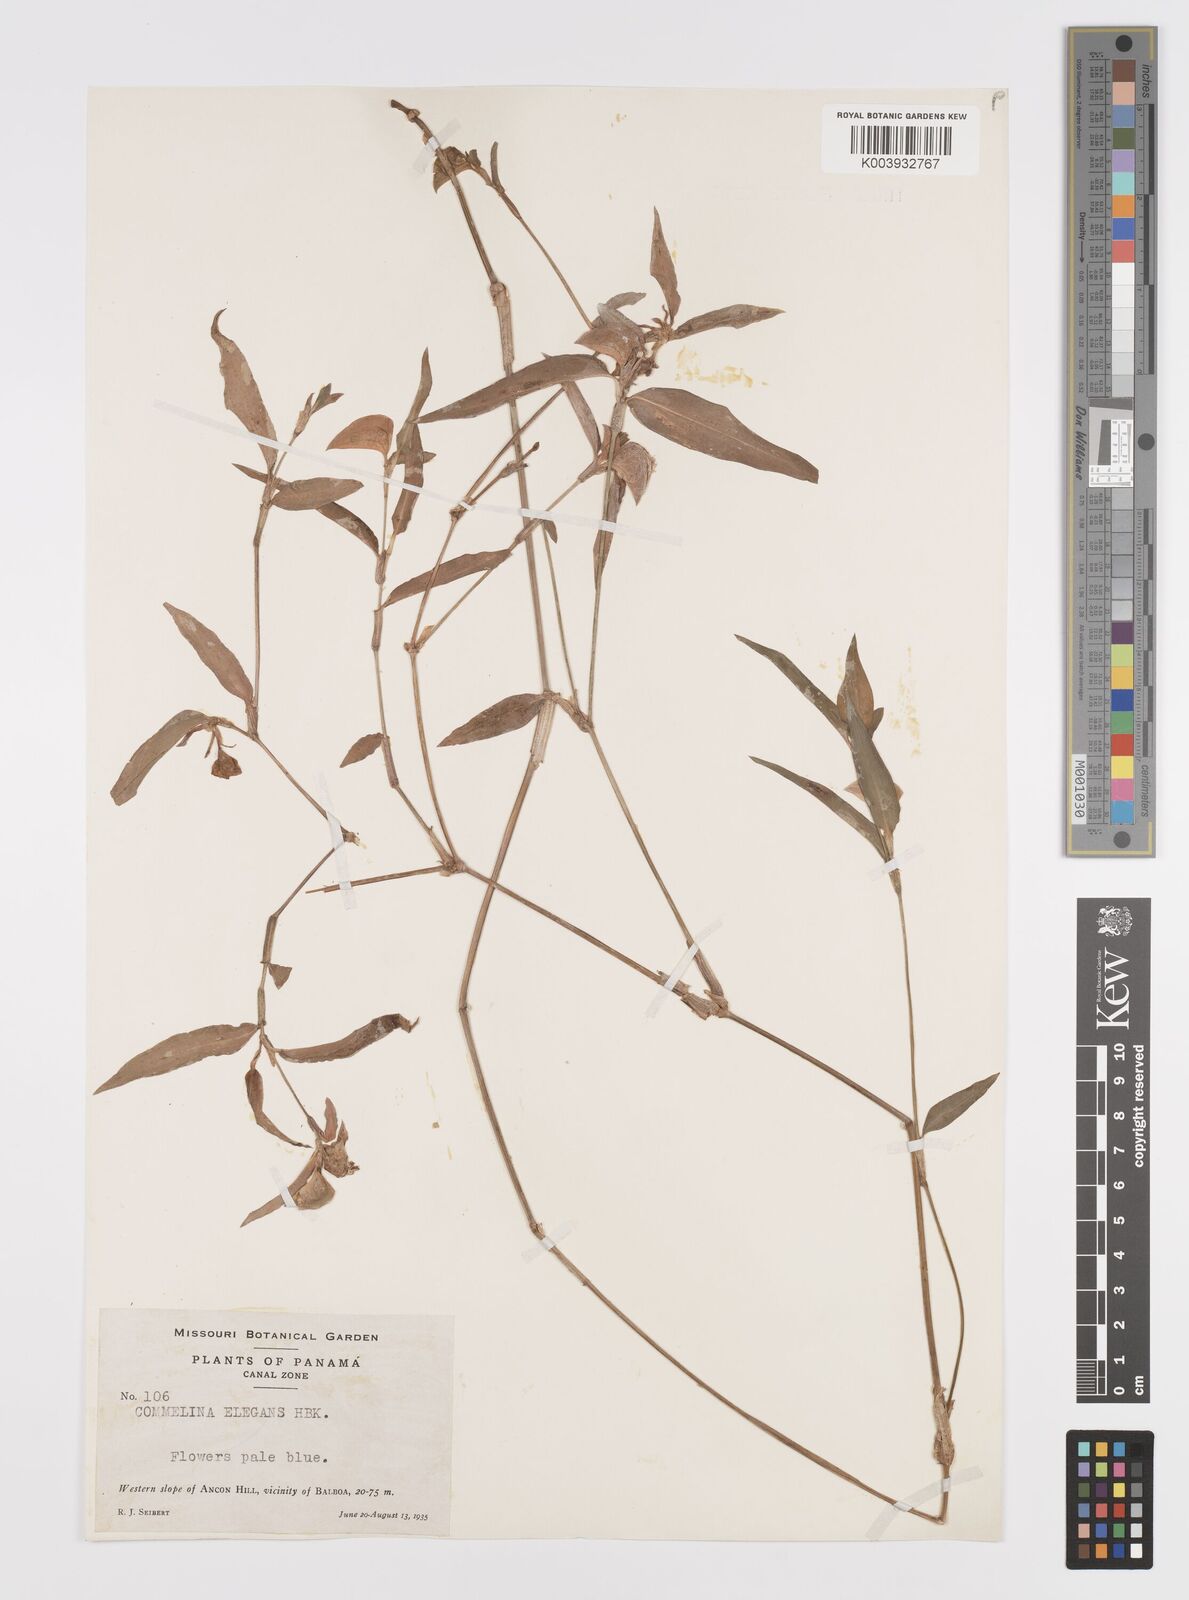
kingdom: Plantae
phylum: Tracheophyta
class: Liliopsida
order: Commelinales
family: Commelinaceae
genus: Commelina
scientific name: Commelina virginica
